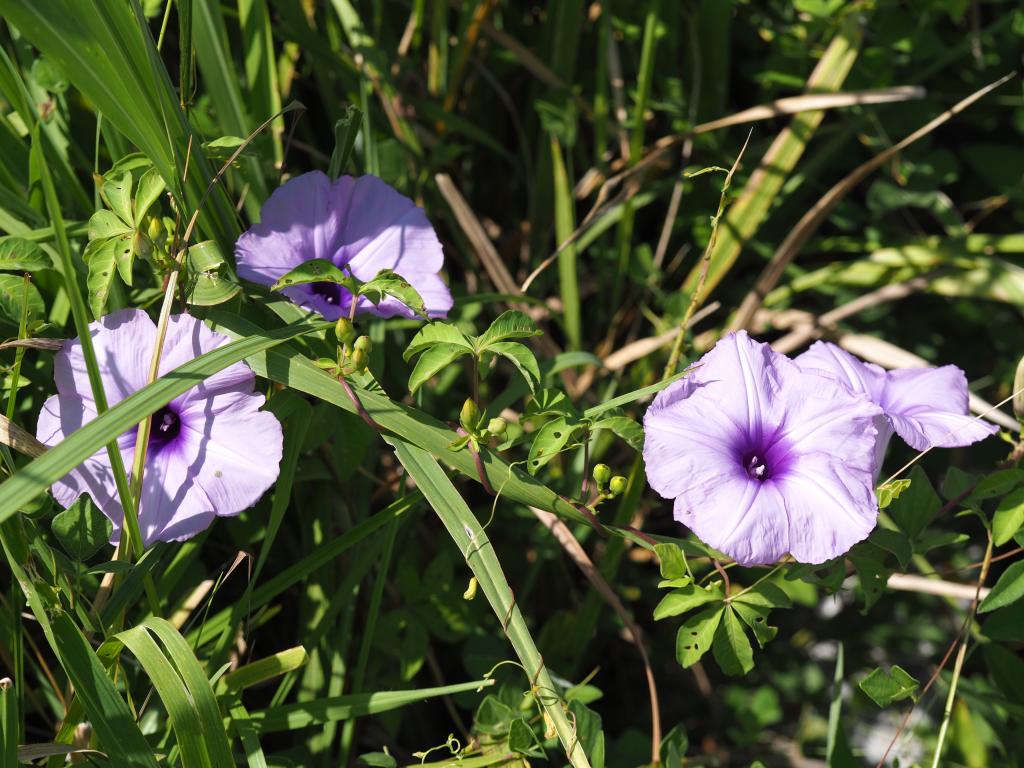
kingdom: Plantae
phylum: Tracheophyta
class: Magnoliopsida
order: Solanales
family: Convolvulaceae
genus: Ipomoea
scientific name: Ipomoea cairica
